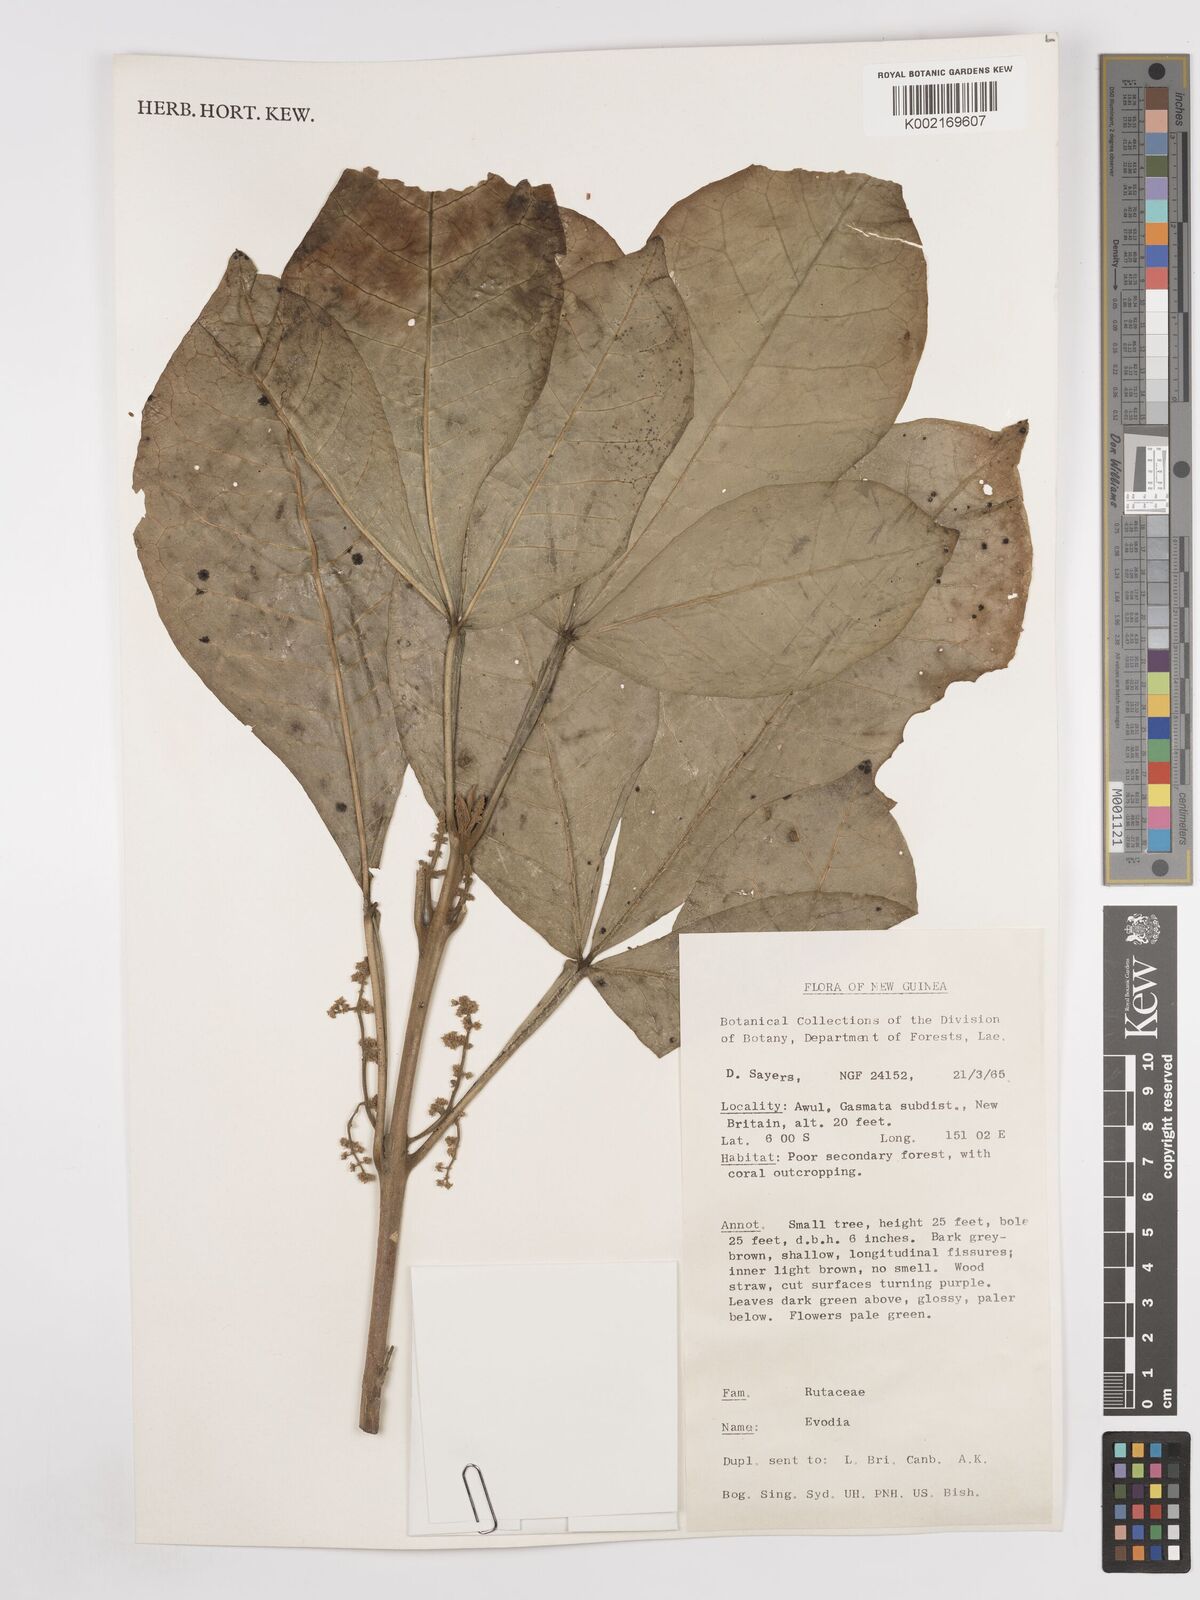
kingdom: Plantae
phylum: Tracheophyta
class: Magnoliopsida
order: Sapindales
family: Rutaceae
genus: Euodia
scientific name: Euodia
